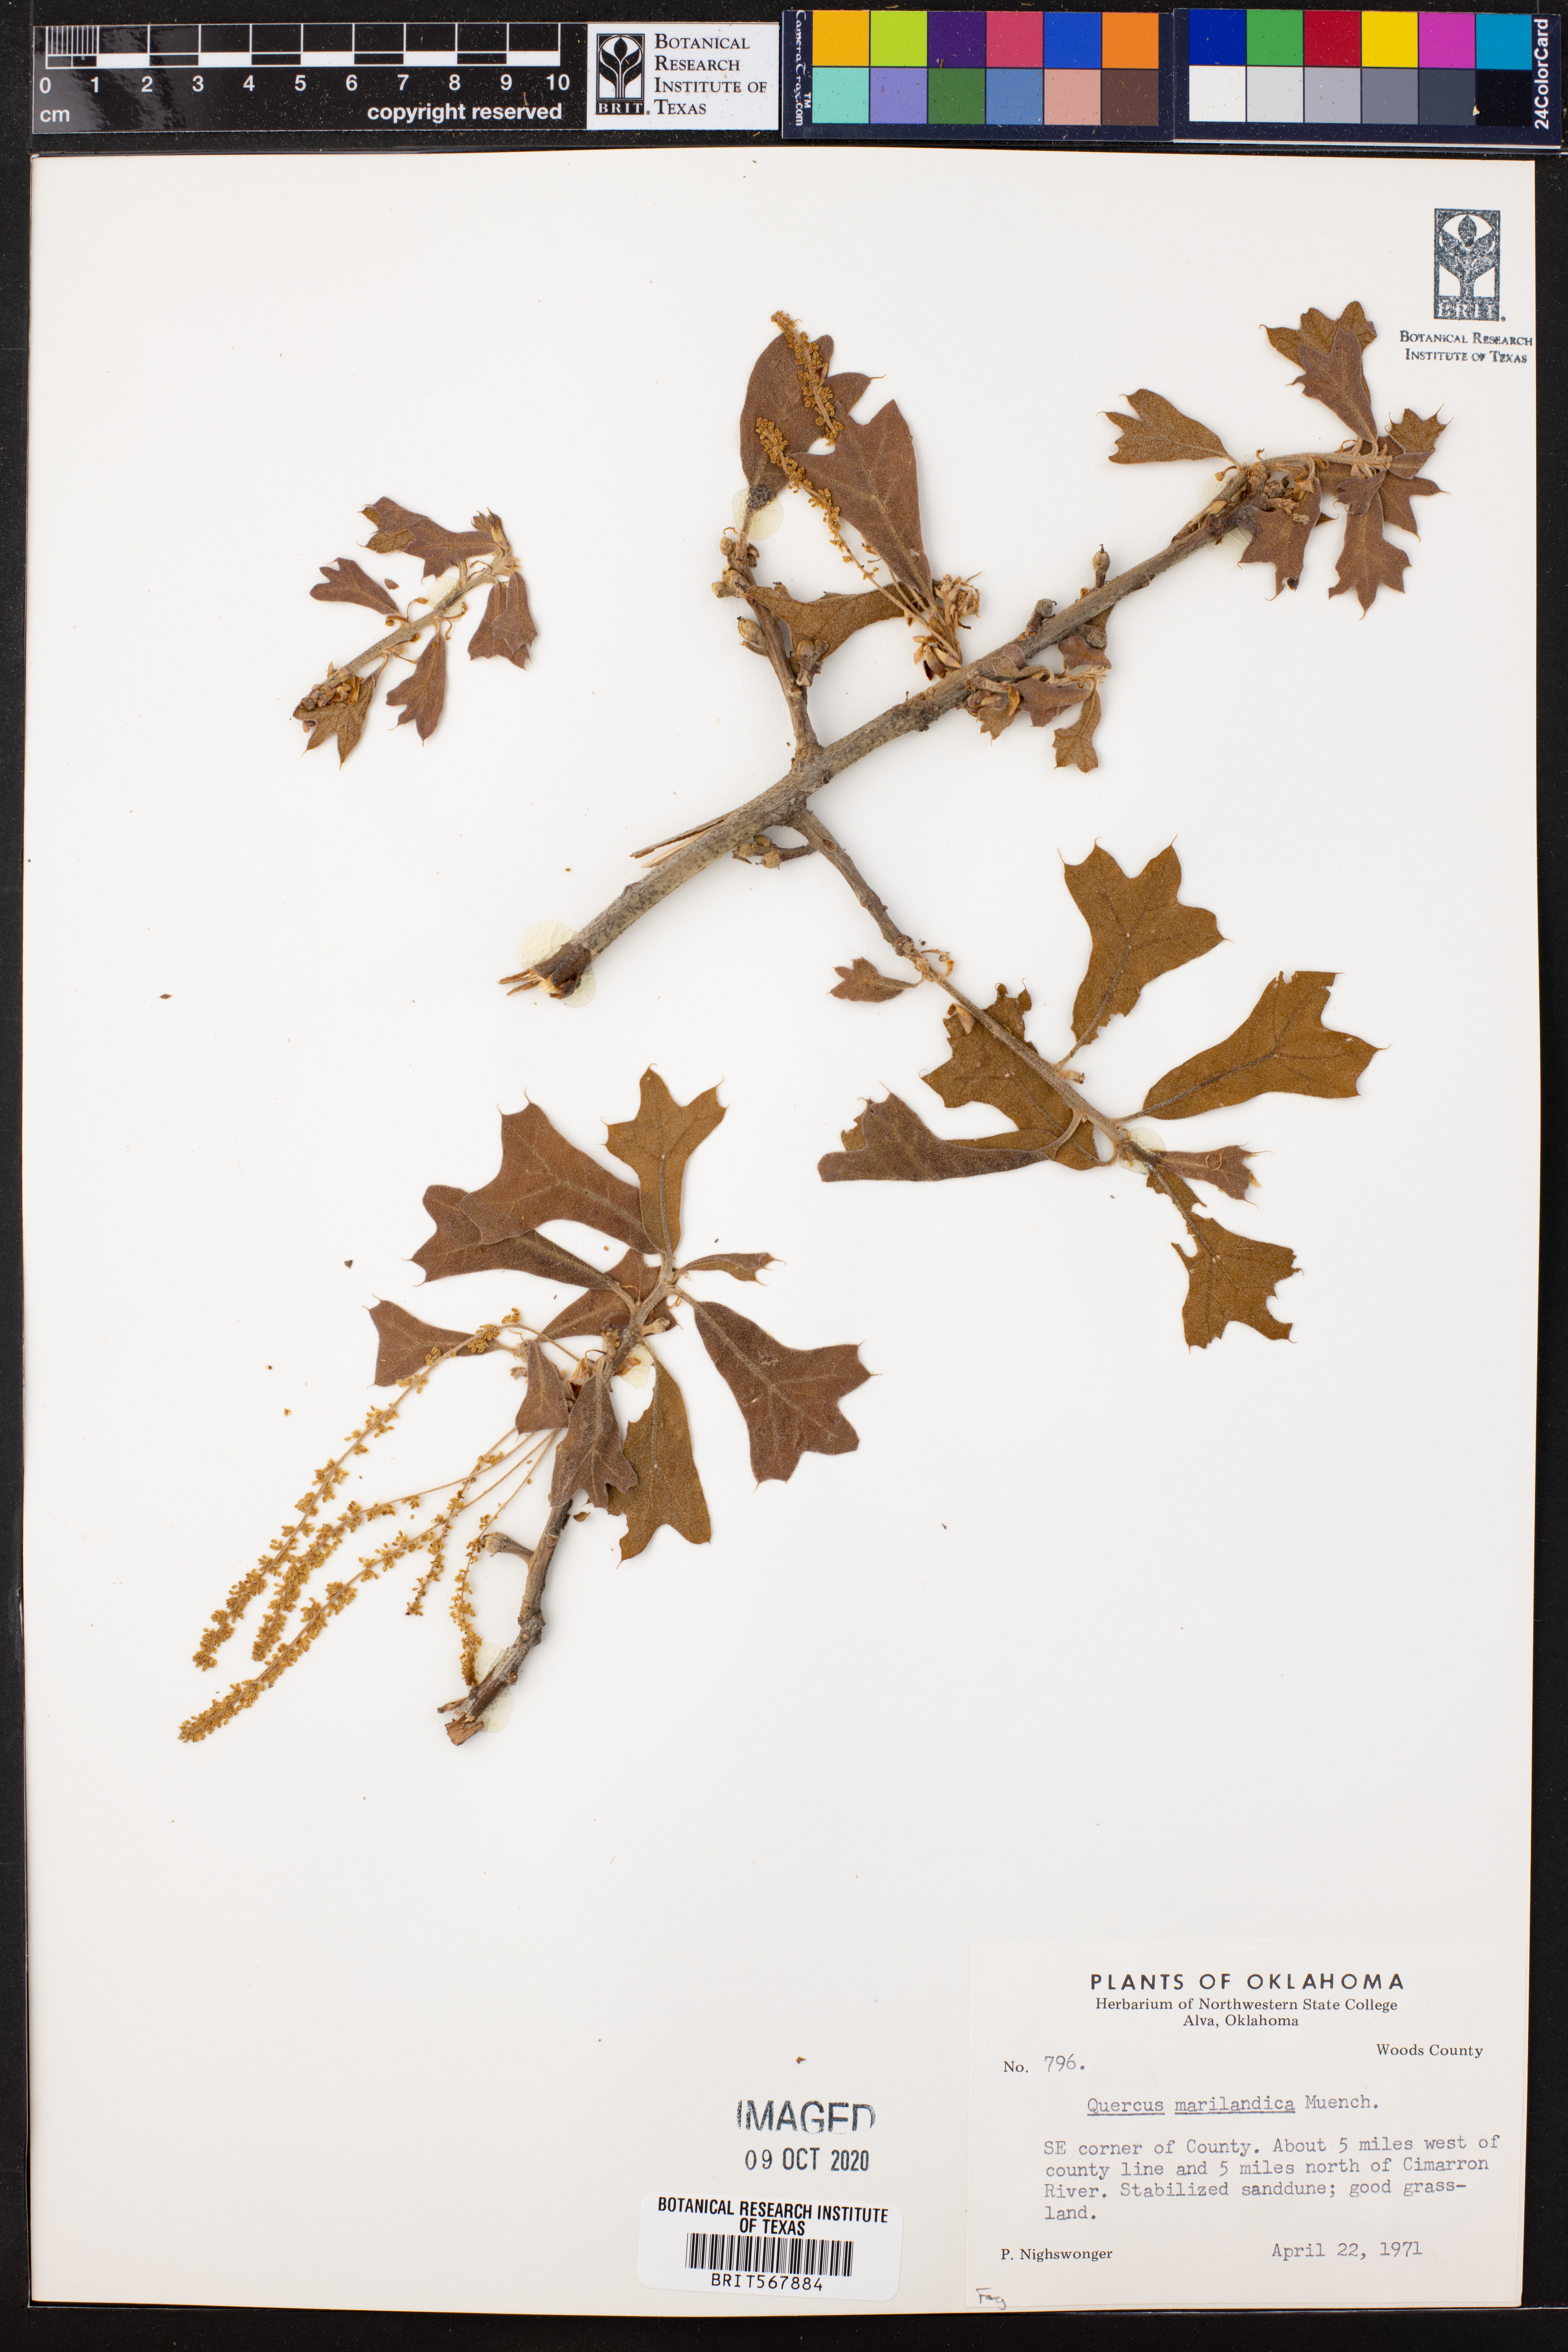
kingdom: Plantae
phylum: Tracheophyta
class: Magnoliopsida
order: Fagales
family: Fagaceae
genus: Quercus
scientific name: Quercus marilandica
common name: Blackjack oak
